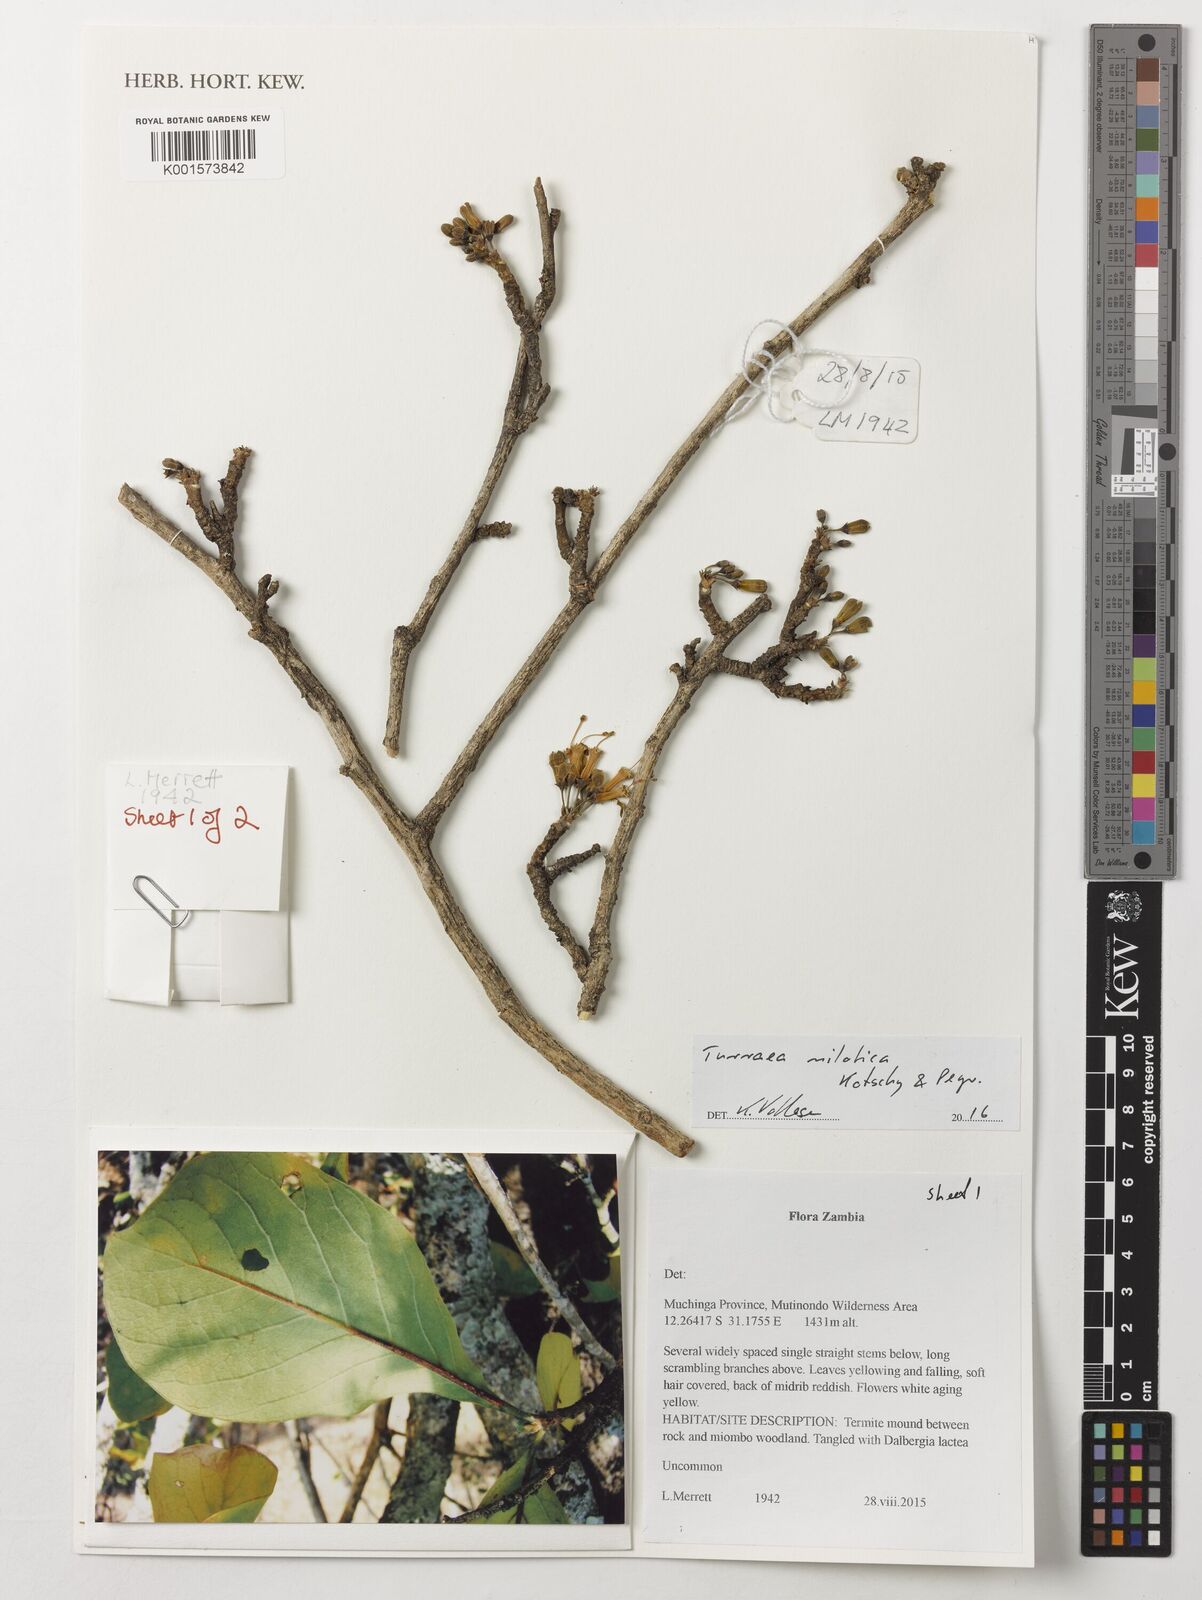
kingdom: Plantae
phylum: Tracheophyta
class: Magnoliopsida
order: Sapindales
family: Meliaceae
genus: Turraea
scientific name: Turraea nilotica
